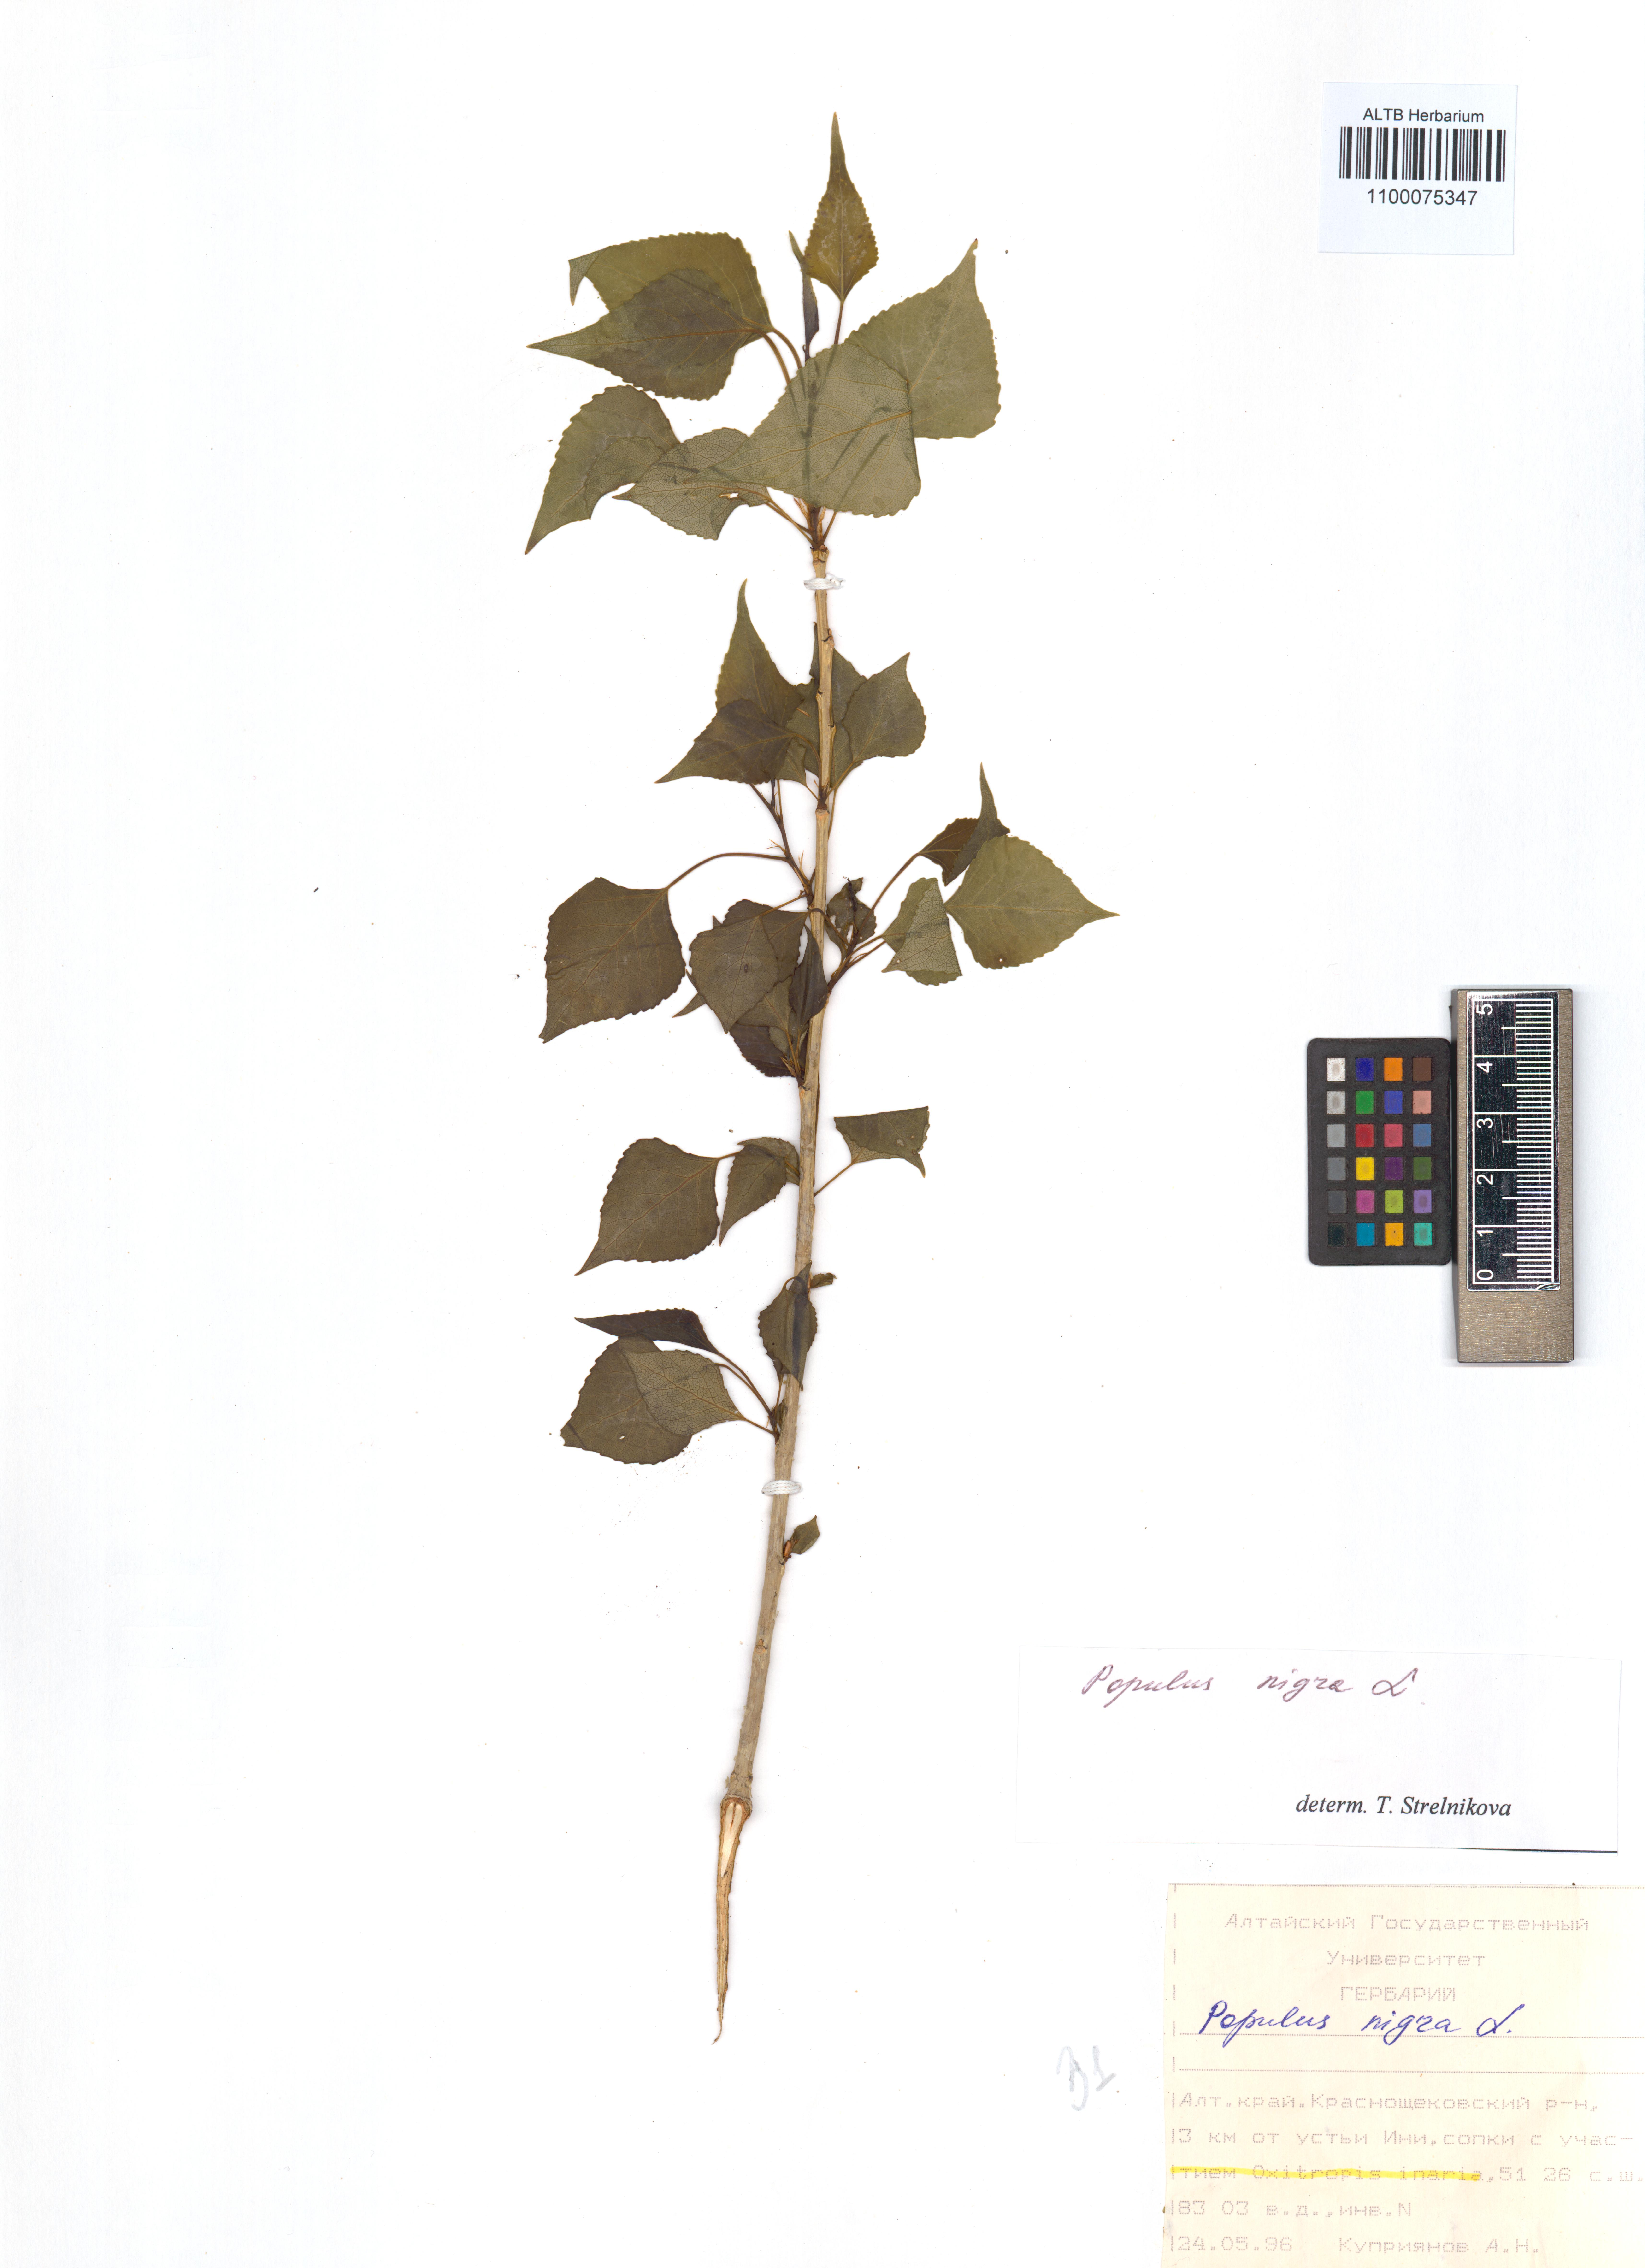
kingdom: Plantae
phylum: Tracheophyta
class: Magnoliopsida
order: Malpighiales
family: Salicaceae
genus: Populus
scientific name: Populus nigra
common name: Black poplar
